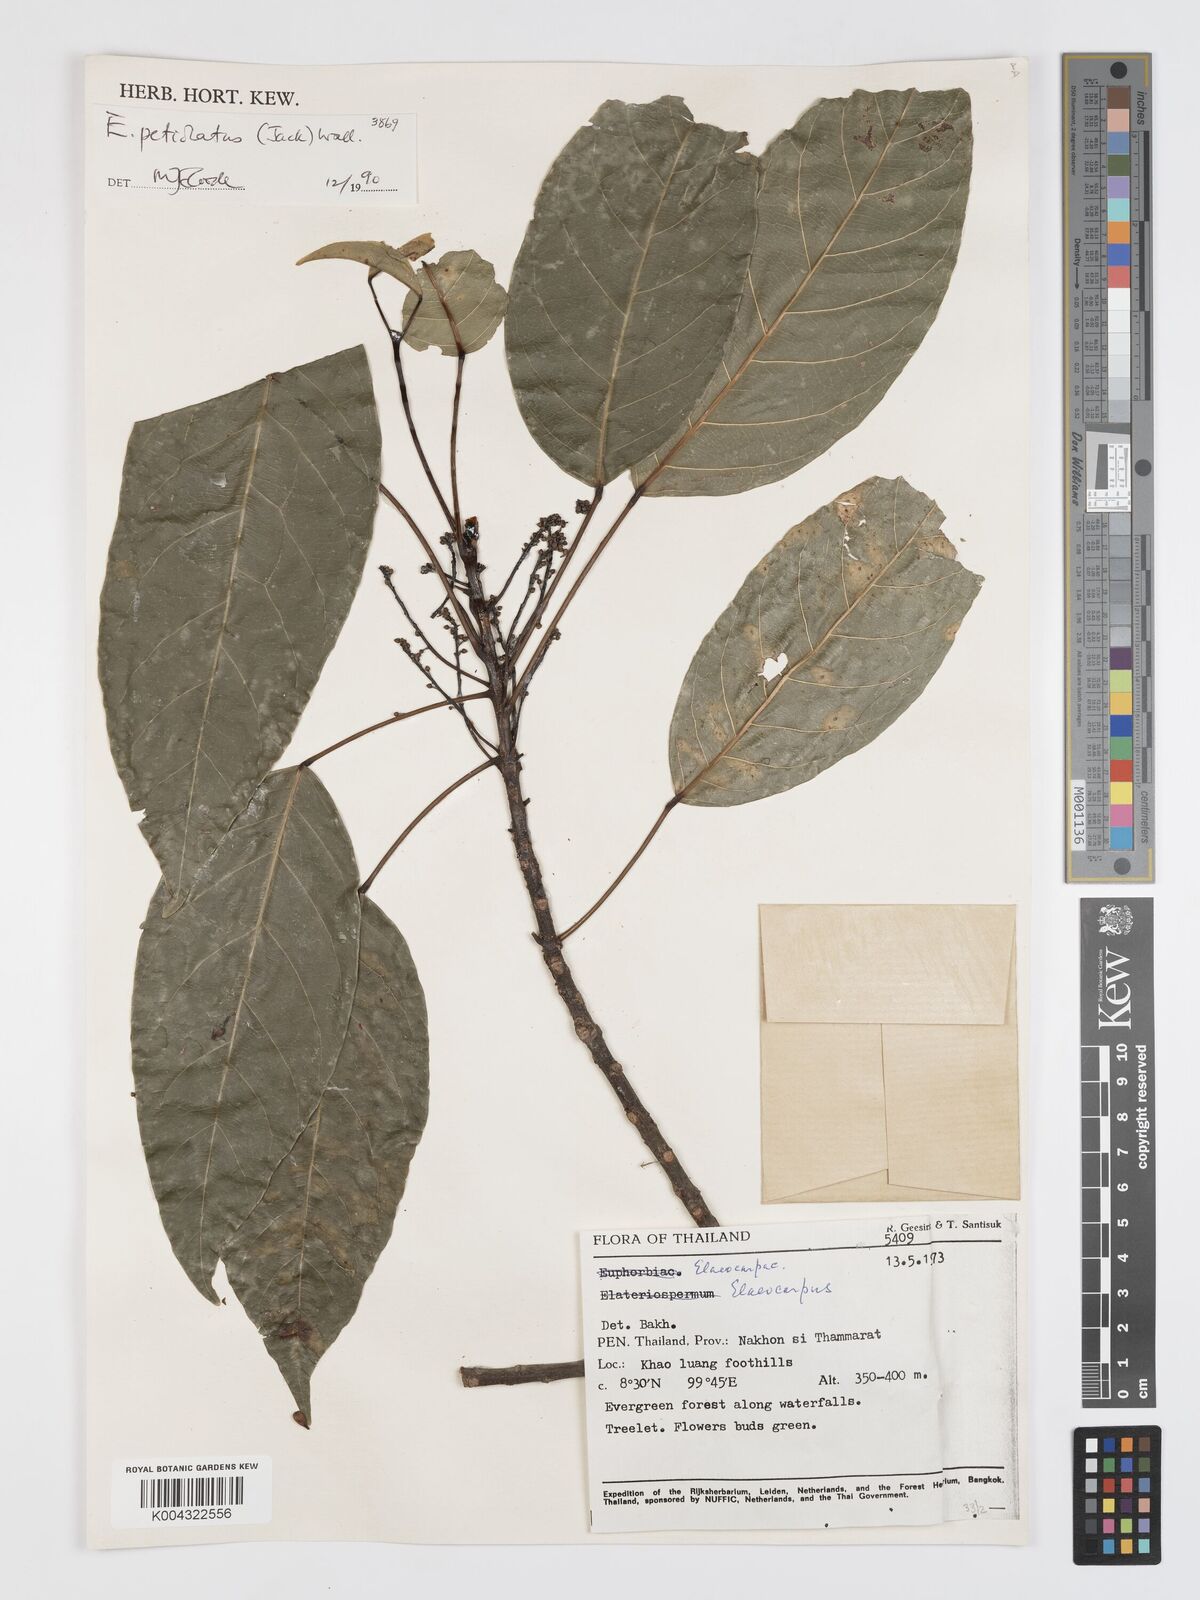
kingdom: Plantae
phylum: Tracheophyta
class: Magnoliopsida
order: Oxalidales
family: Elaeocarpaceae
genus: Elaeocarpus
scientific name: Elaeocarpus petiolatus
